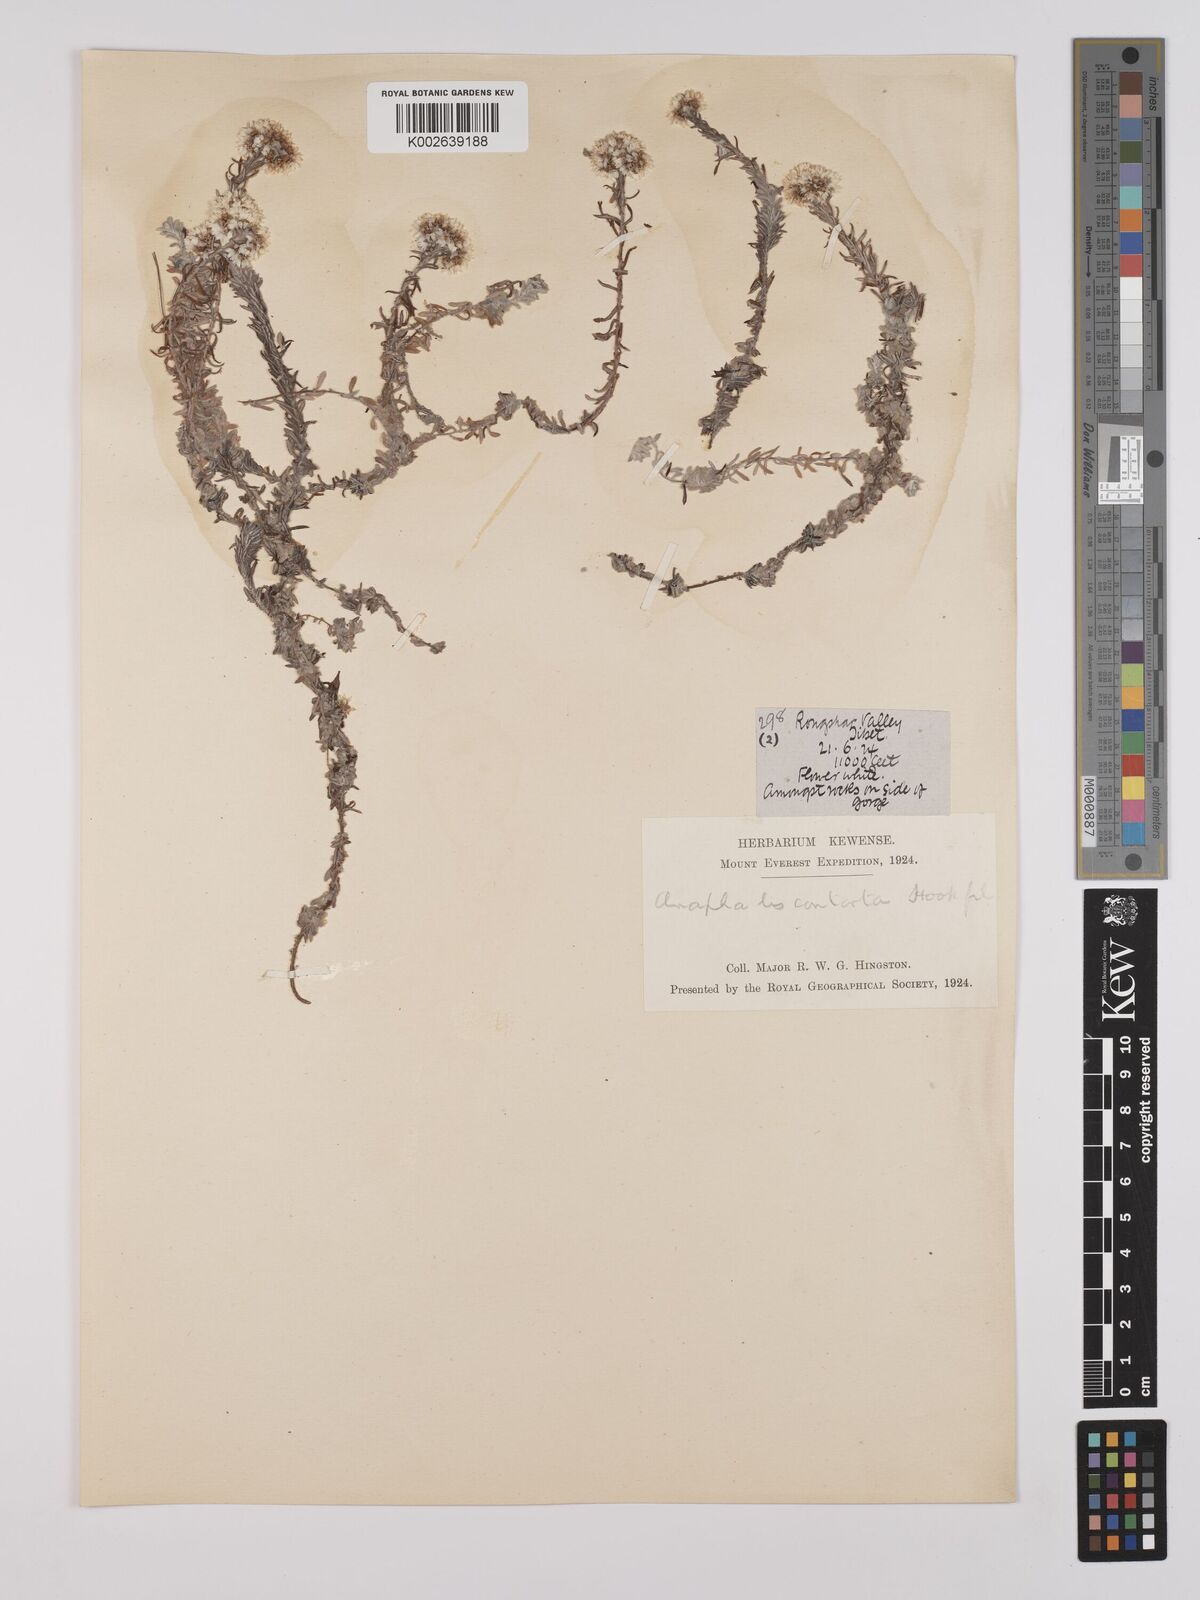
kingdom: Plantae
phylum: Tracheophyta
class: Magnoliopsida
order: Asterales
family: Asteraceae
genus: Anaphalis
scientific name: Anaphalis contorta
